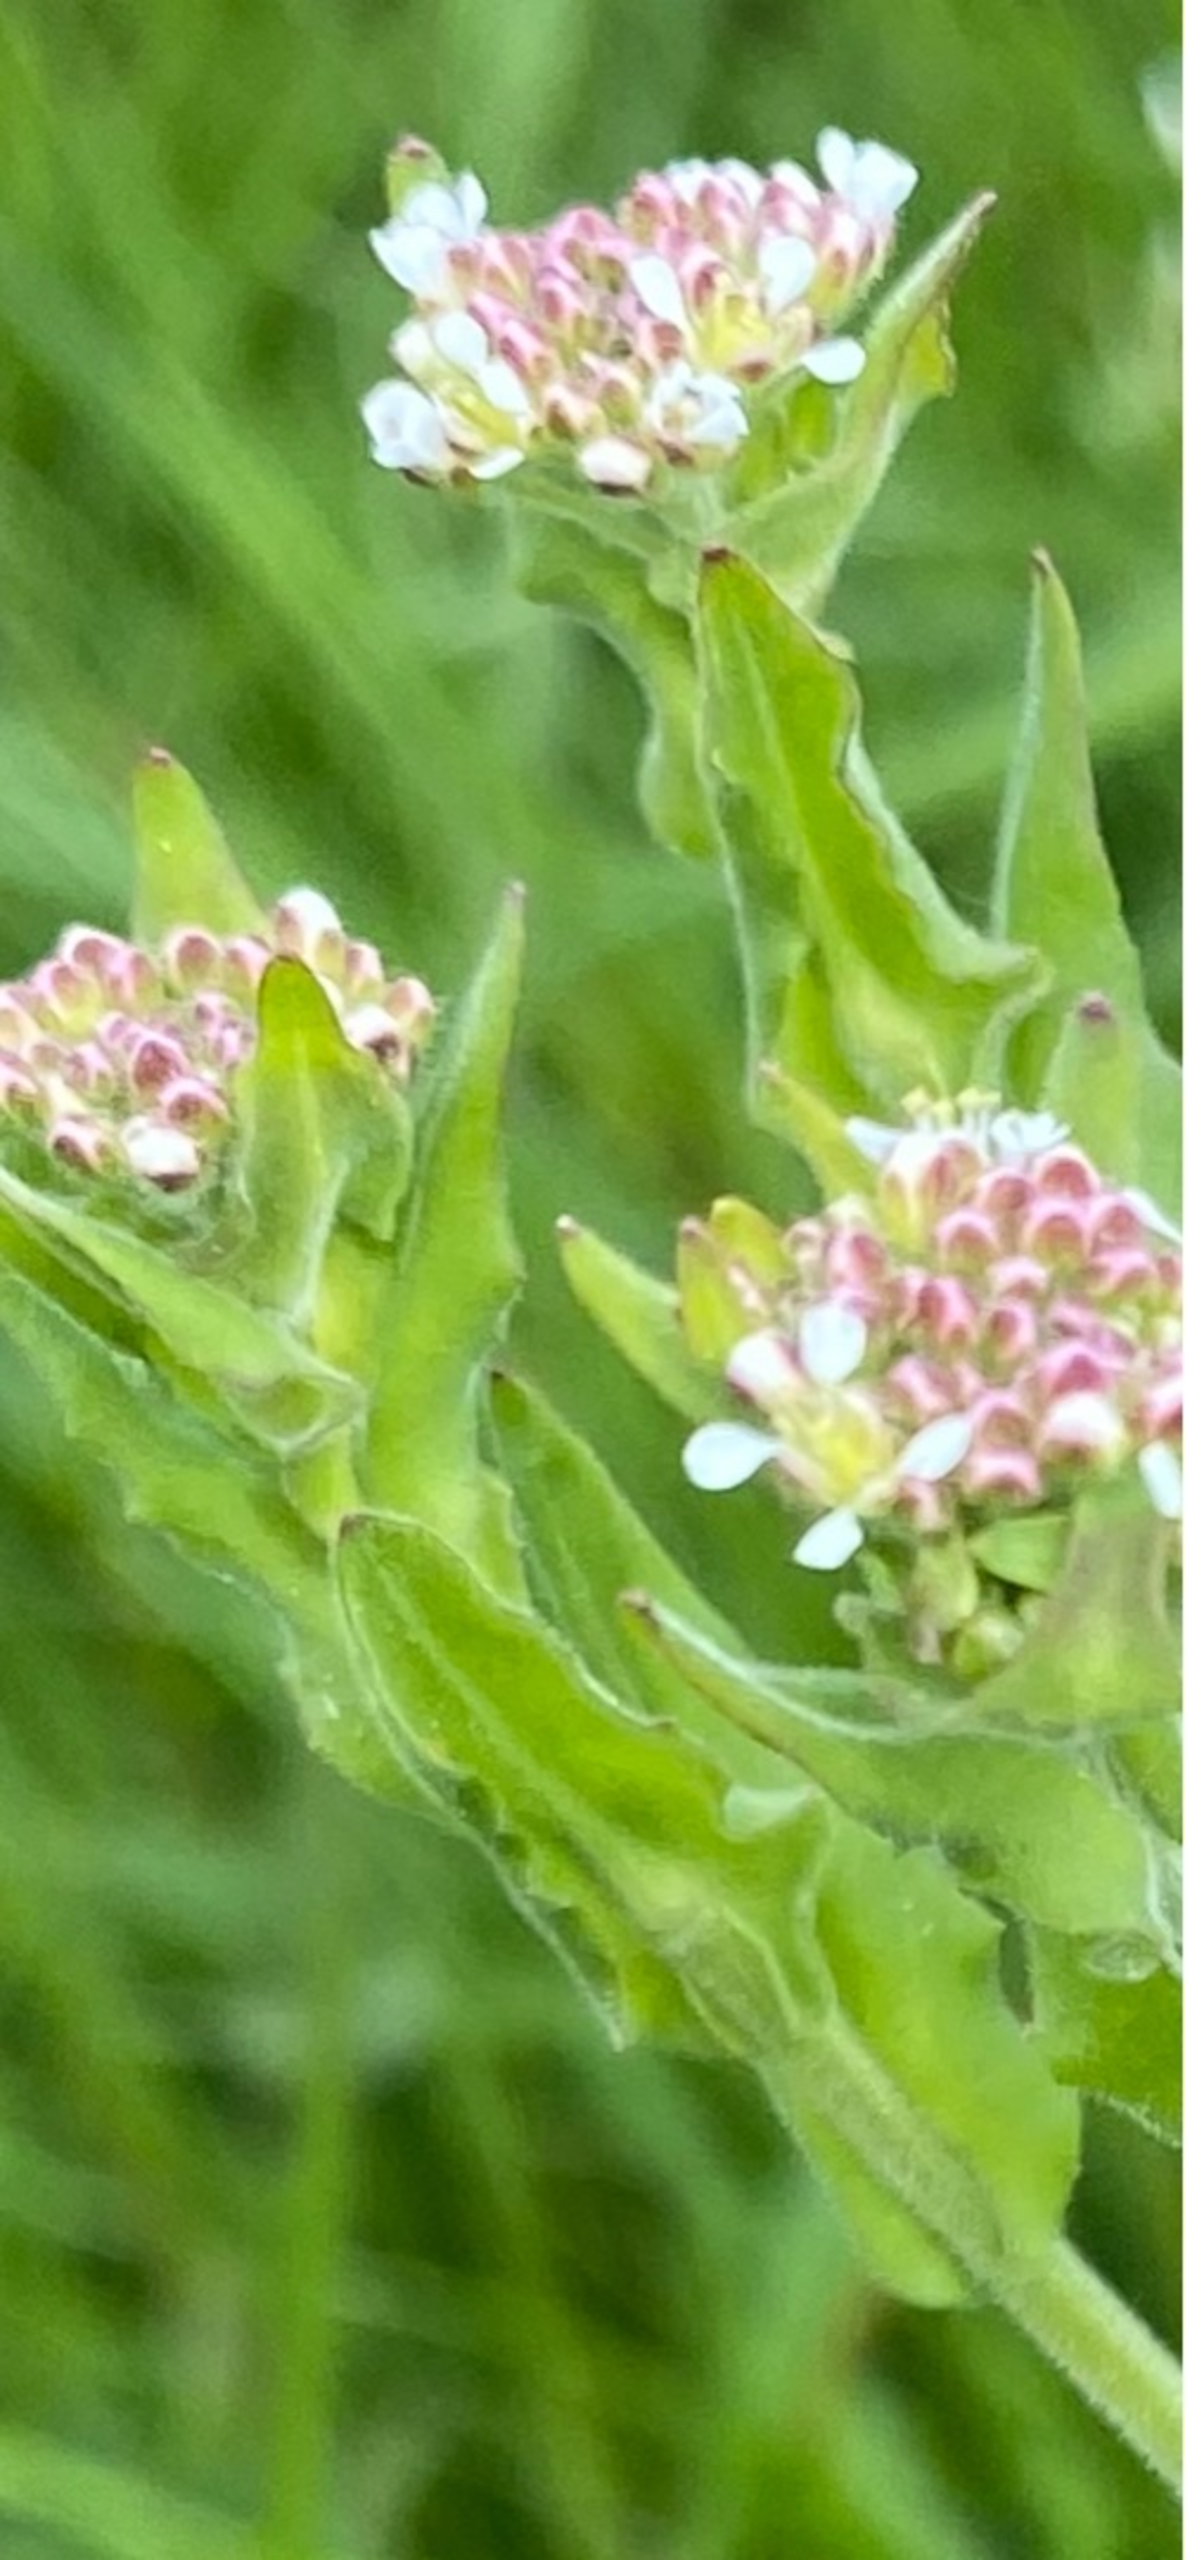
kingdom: Plantae
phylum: Tracheophyta
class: Magnoliopsida
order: Brassicales
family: Brassicaceae
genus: Lepidium
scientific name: Lepidium campestre
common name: Salomons lysestage
